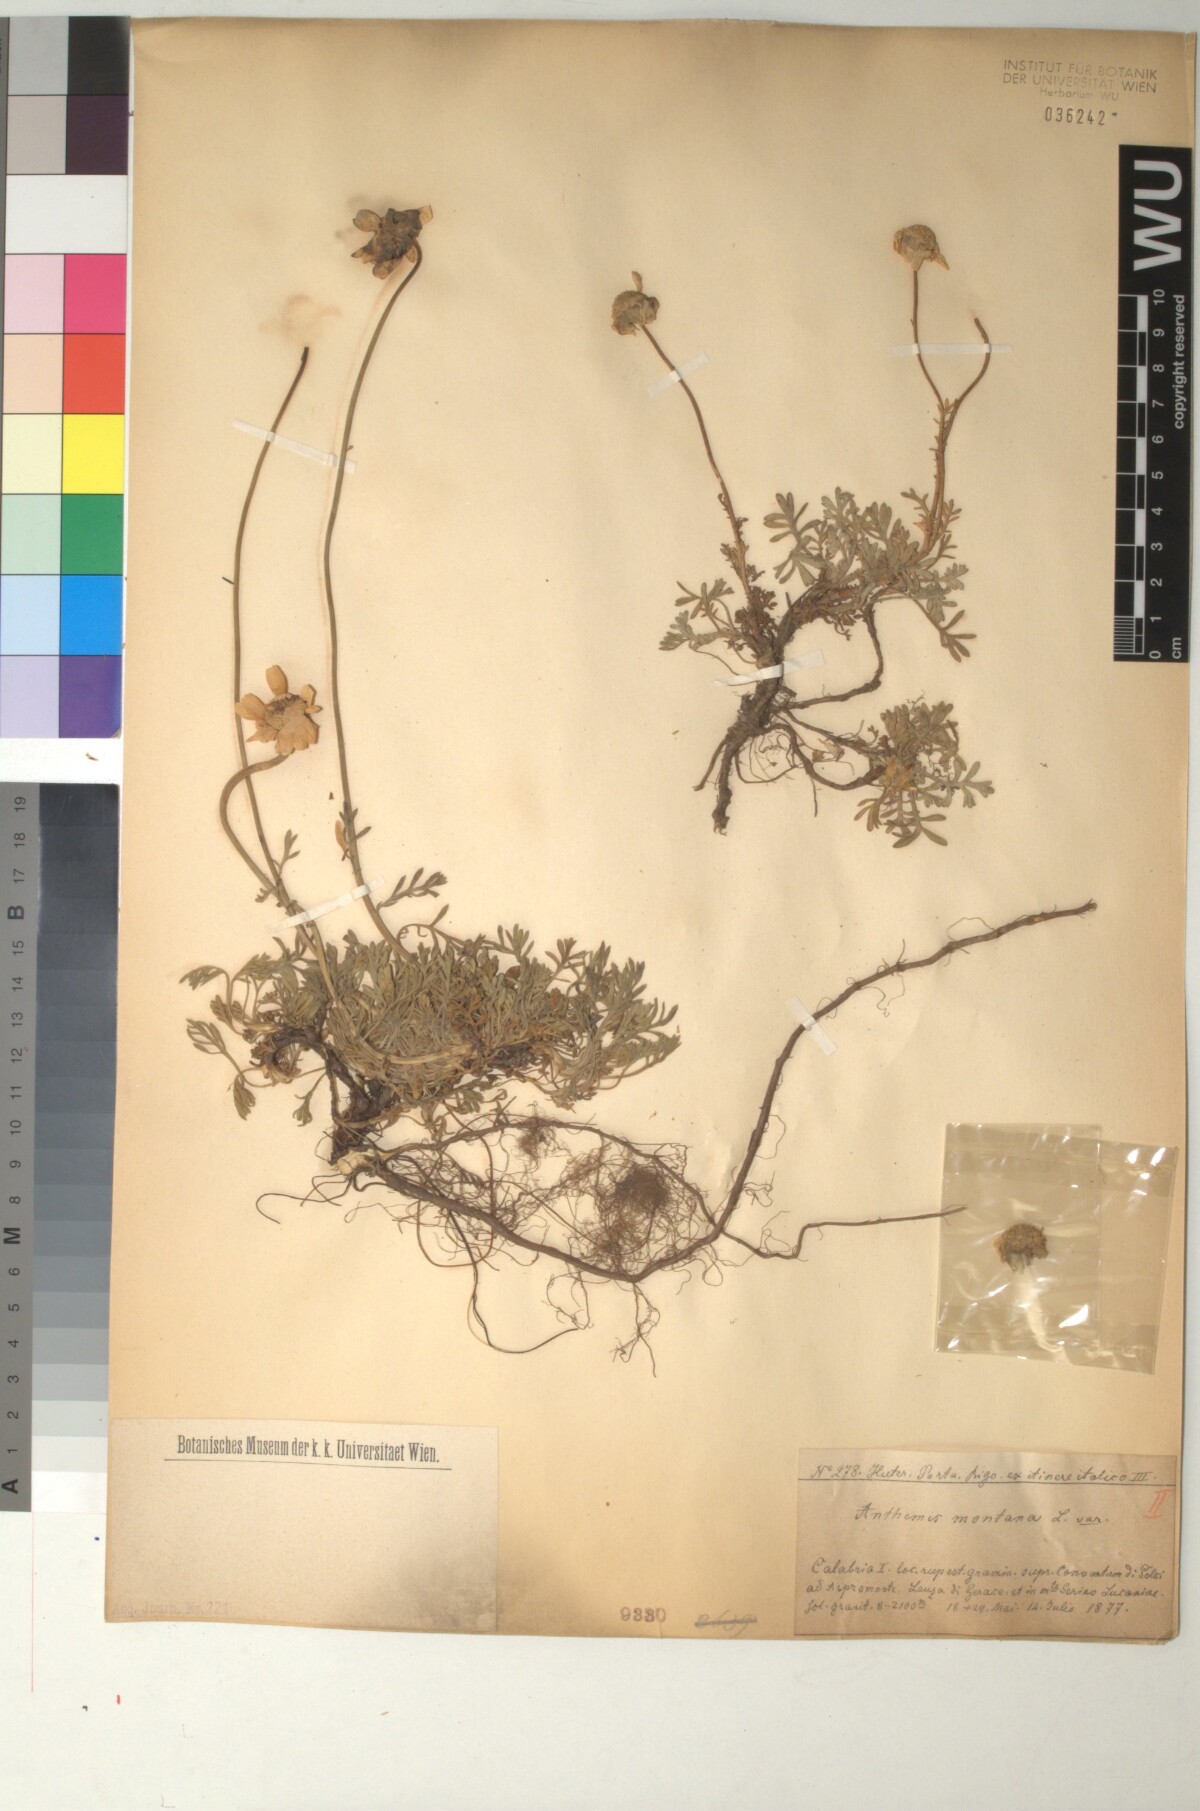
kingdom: Plantae
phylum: Tracheophyta
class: Magnoliopsida
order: Asterales
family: Asteraceae
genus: Anthemis
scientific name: Anthemis cretica
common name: Mountain dog-daisy
